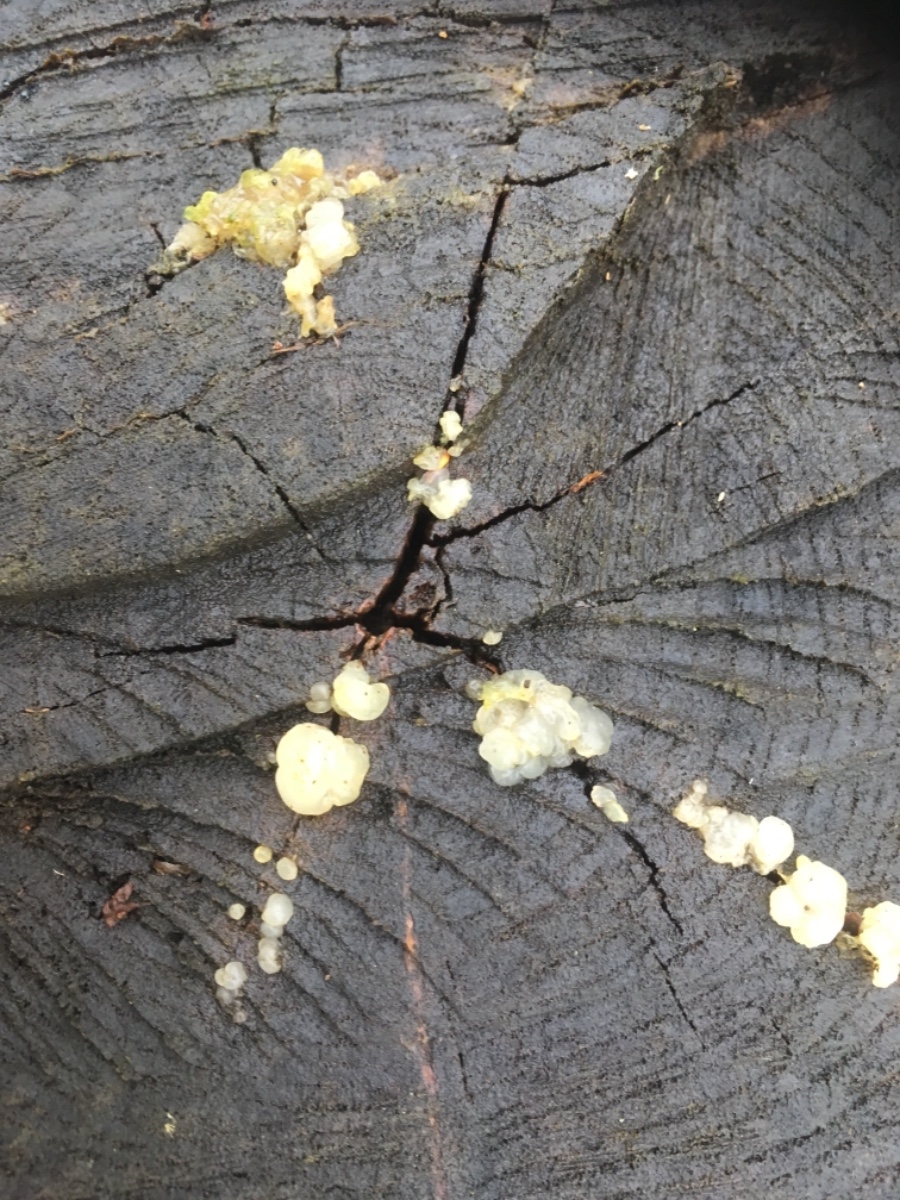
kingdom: Fungi
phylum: Basidiomycota
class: Tremellomycetes
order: Tremellales
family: Exidiaceae
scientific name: Exidiaceae
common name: bævretopfamilien
